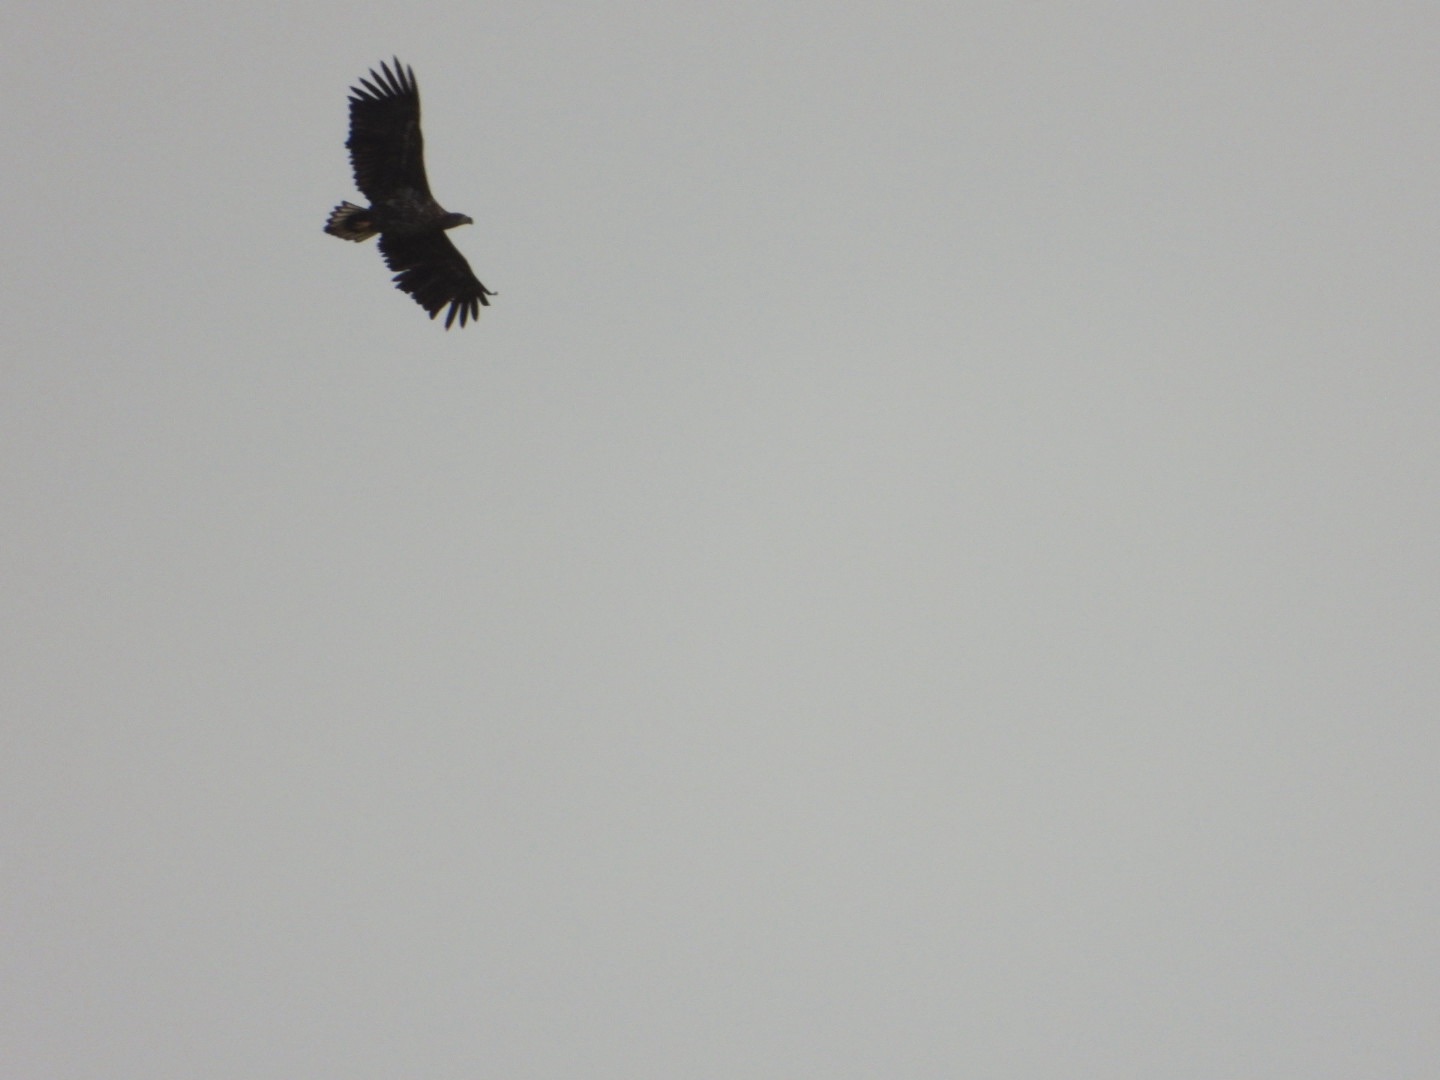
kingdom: Animalia
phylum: Chordata
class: Aves
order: Accipitriformes
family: Accipitridae
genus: Haliaeetus
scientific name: Haliaeetus albicilla
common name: Havørn
